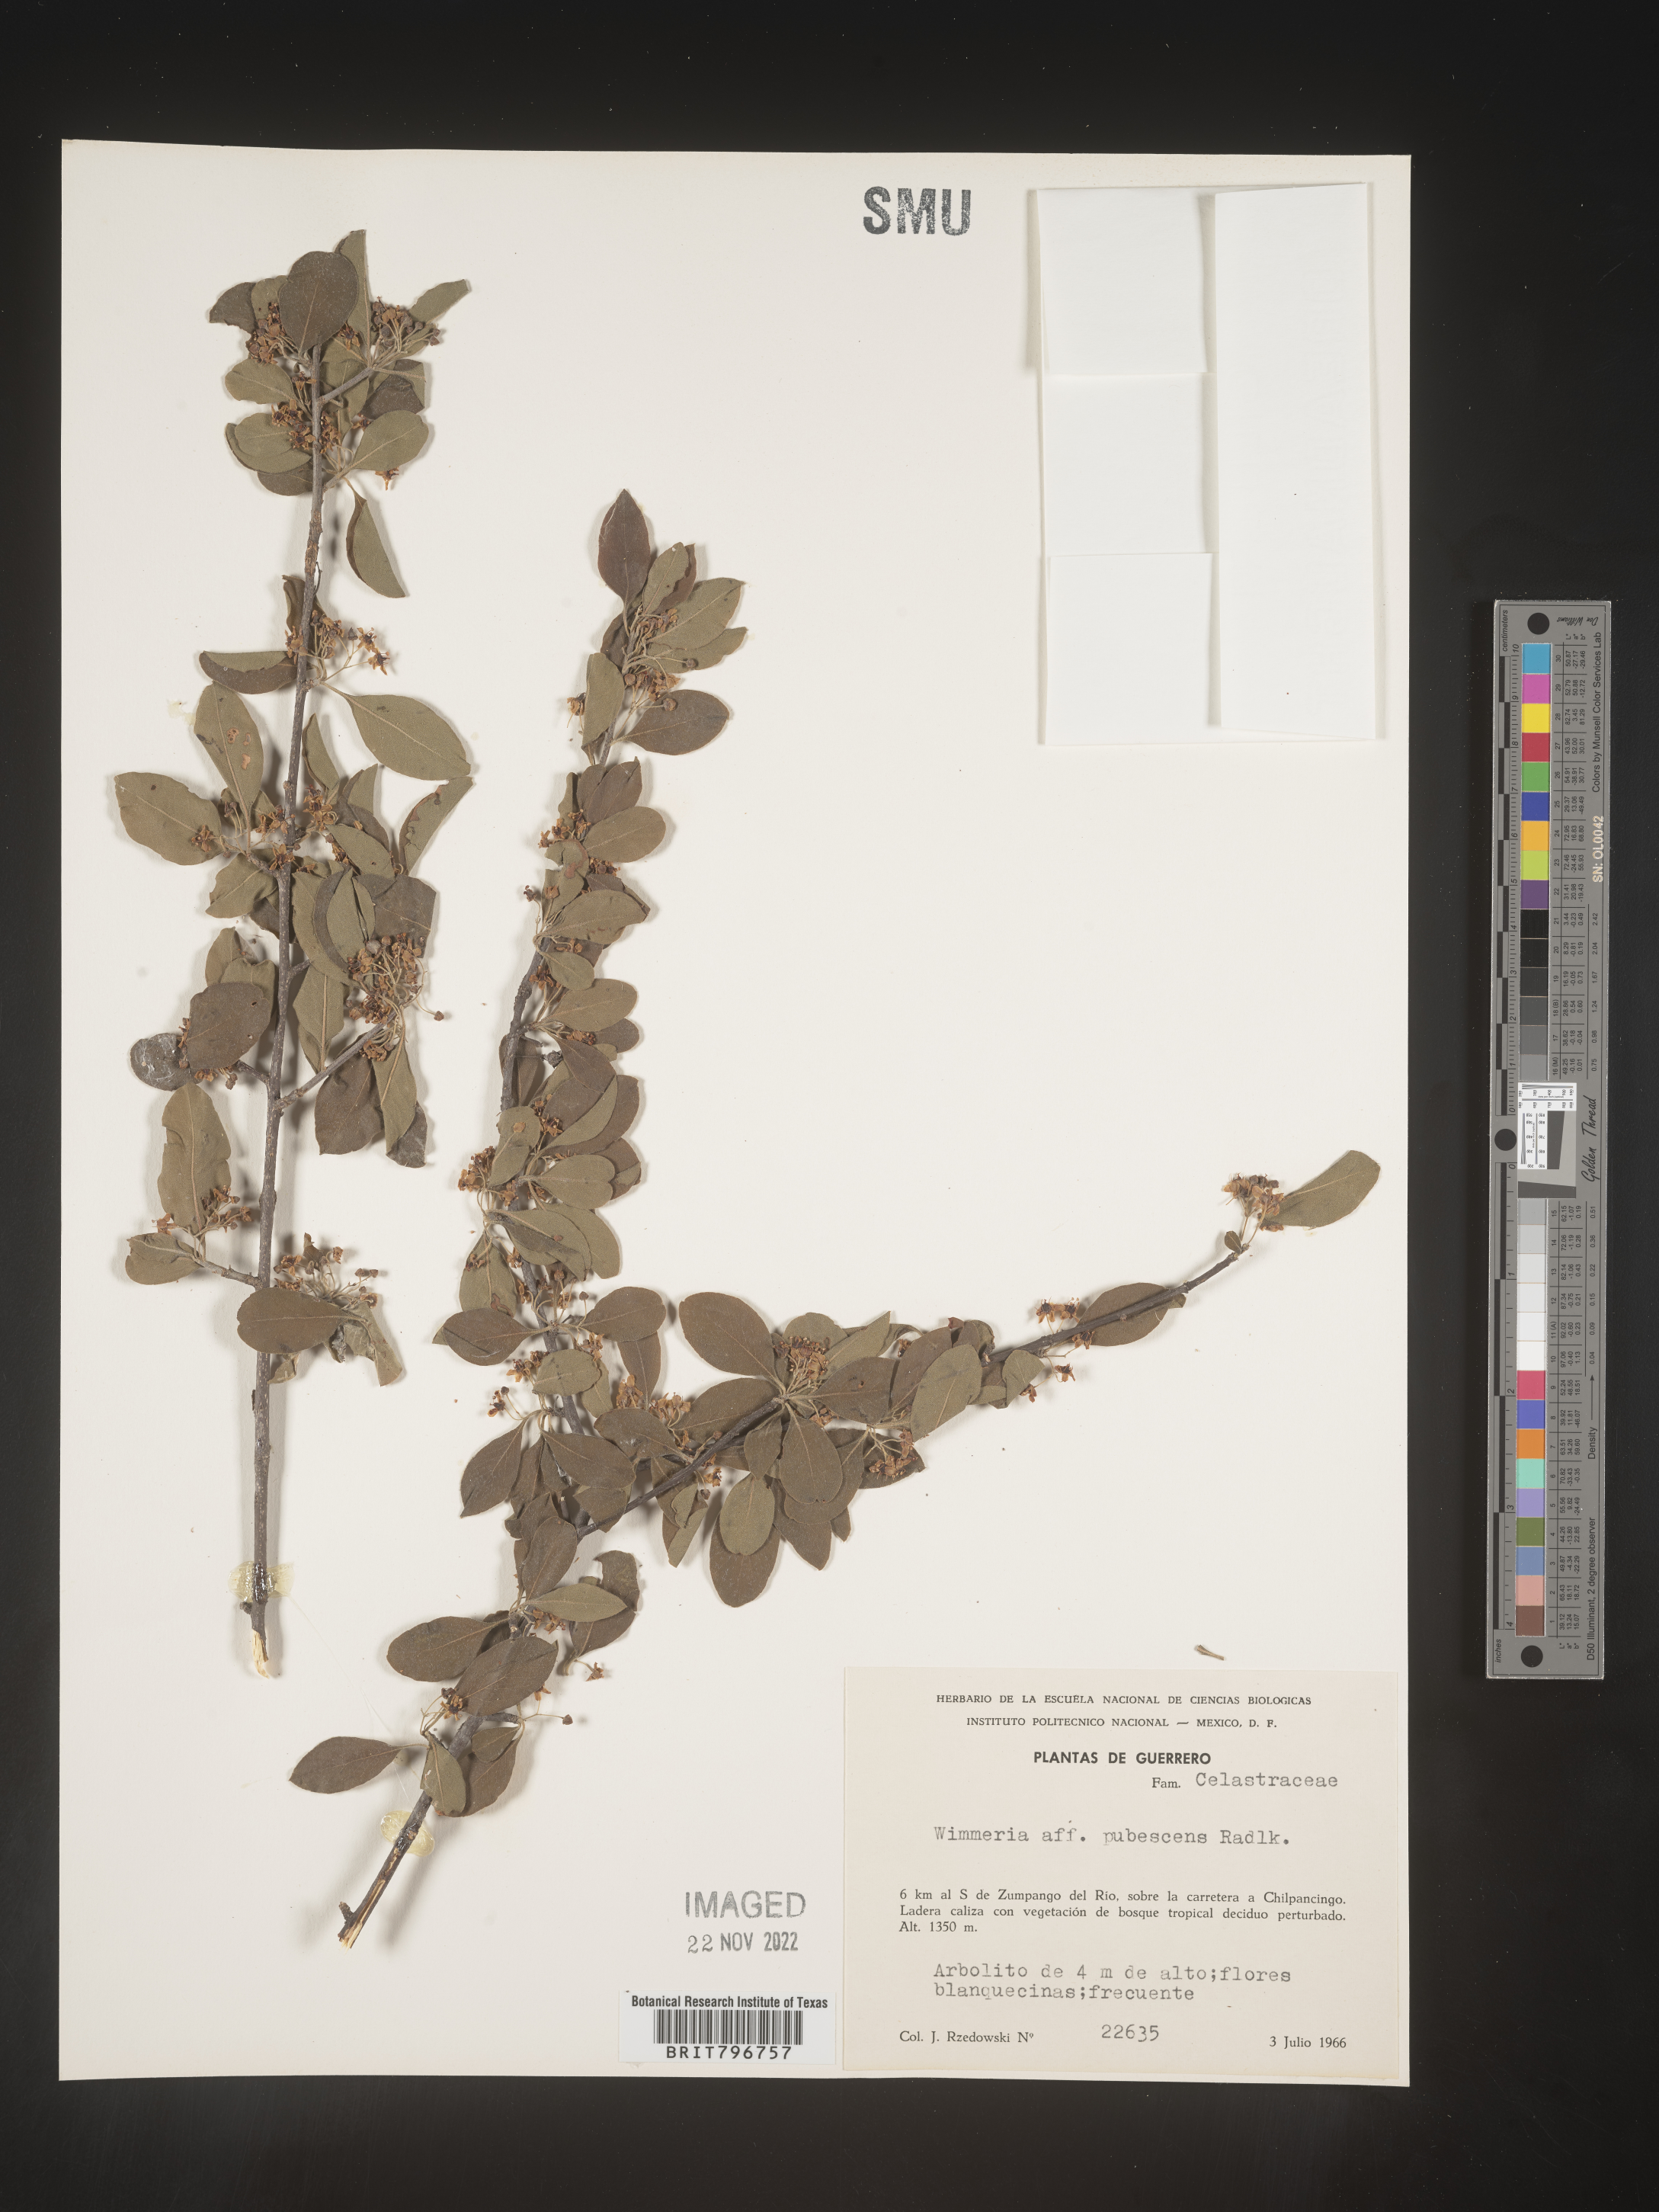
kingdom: Plantae
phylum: Tracheophyta
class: Magnoliopsida
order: Celastrales
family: Celastraceae
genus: Wimmeria
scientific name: Wimmeria
